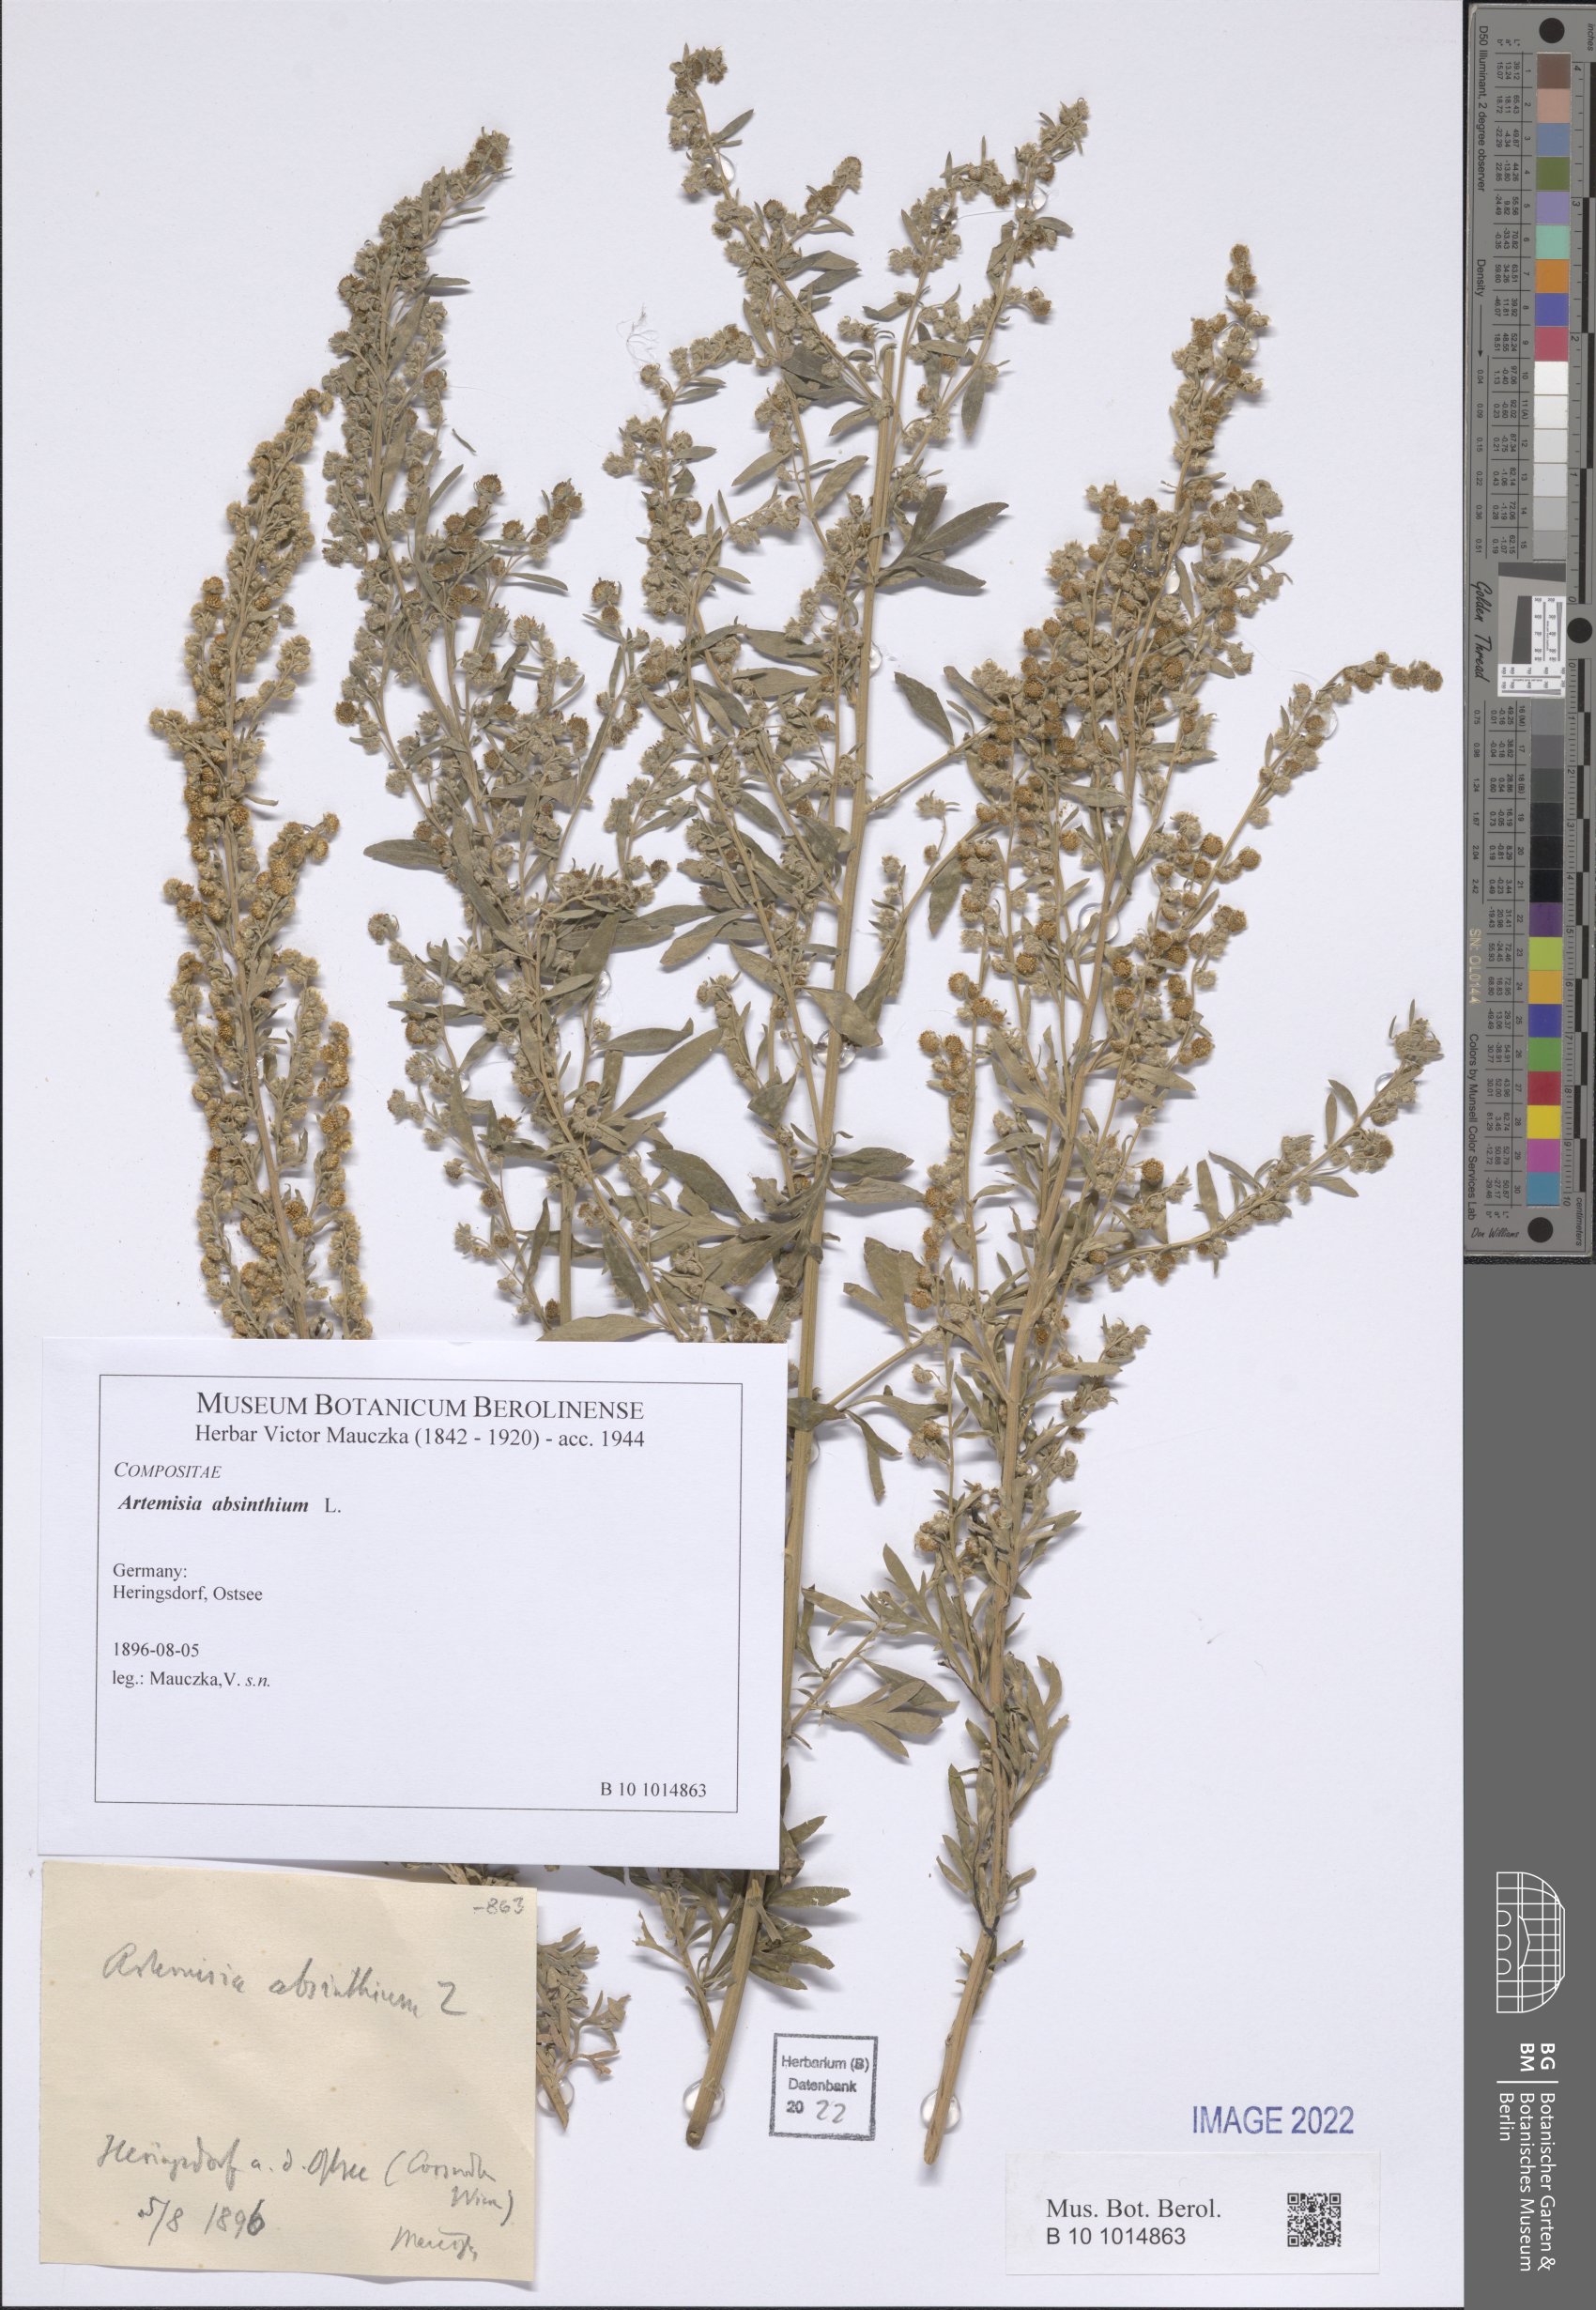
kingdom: Plantae
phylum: Tracheophyta
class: Magnoliopsida
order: Asterales
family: Asteraceae
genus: Artemisia
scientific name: Artemisia absinthium
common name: Wormwood
